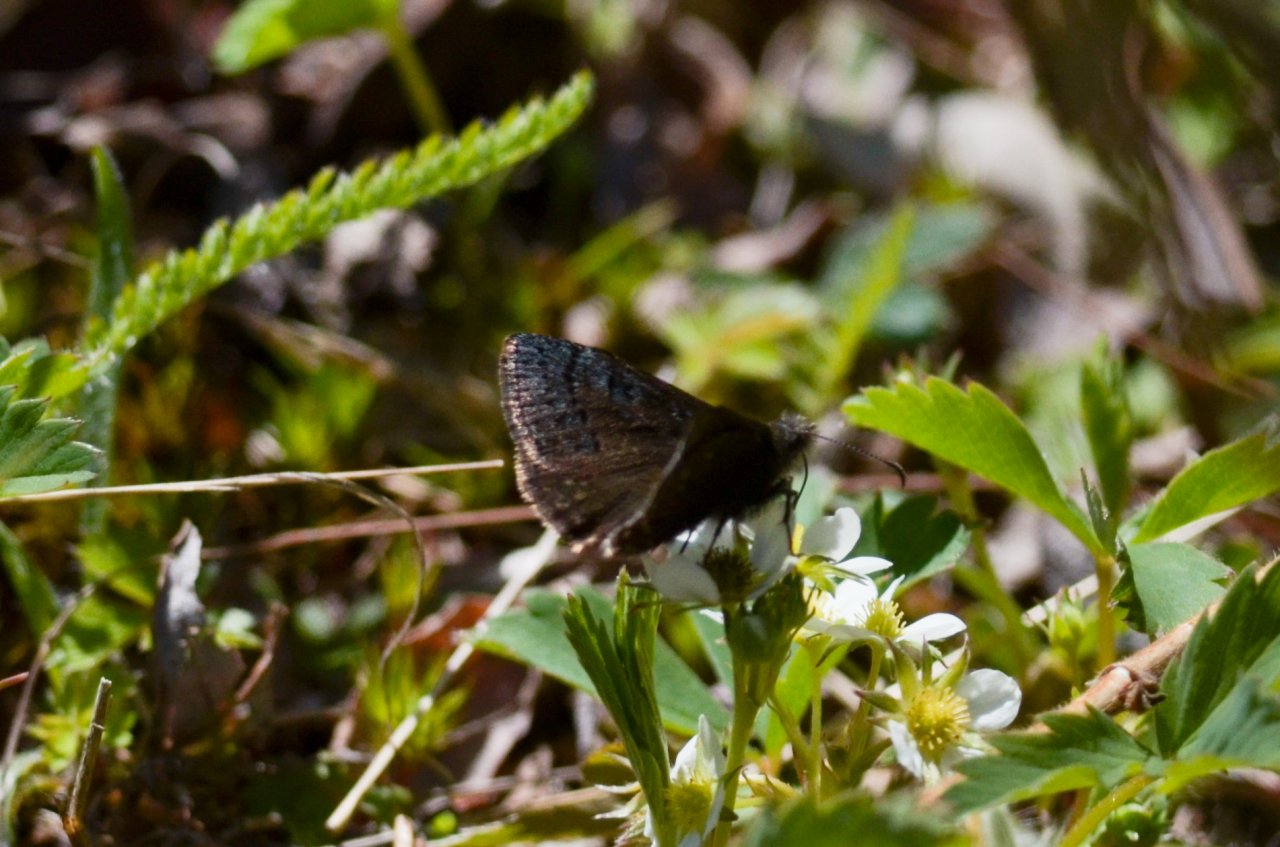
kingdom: Animalia
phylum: Arthropoda
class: Insecta
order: Lepidoptera
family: Hesperiidae
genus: Erynnis
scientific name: Erynnis brizo
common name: Sleepy Duskywing
